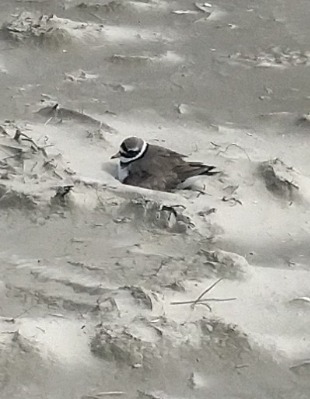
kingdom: Animalia
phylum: Chordata
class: Aves
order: Charadriiformes
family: Charadriidae
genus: Charadrius
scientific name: Charadrius hiaticula
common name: Stor præstekrave
